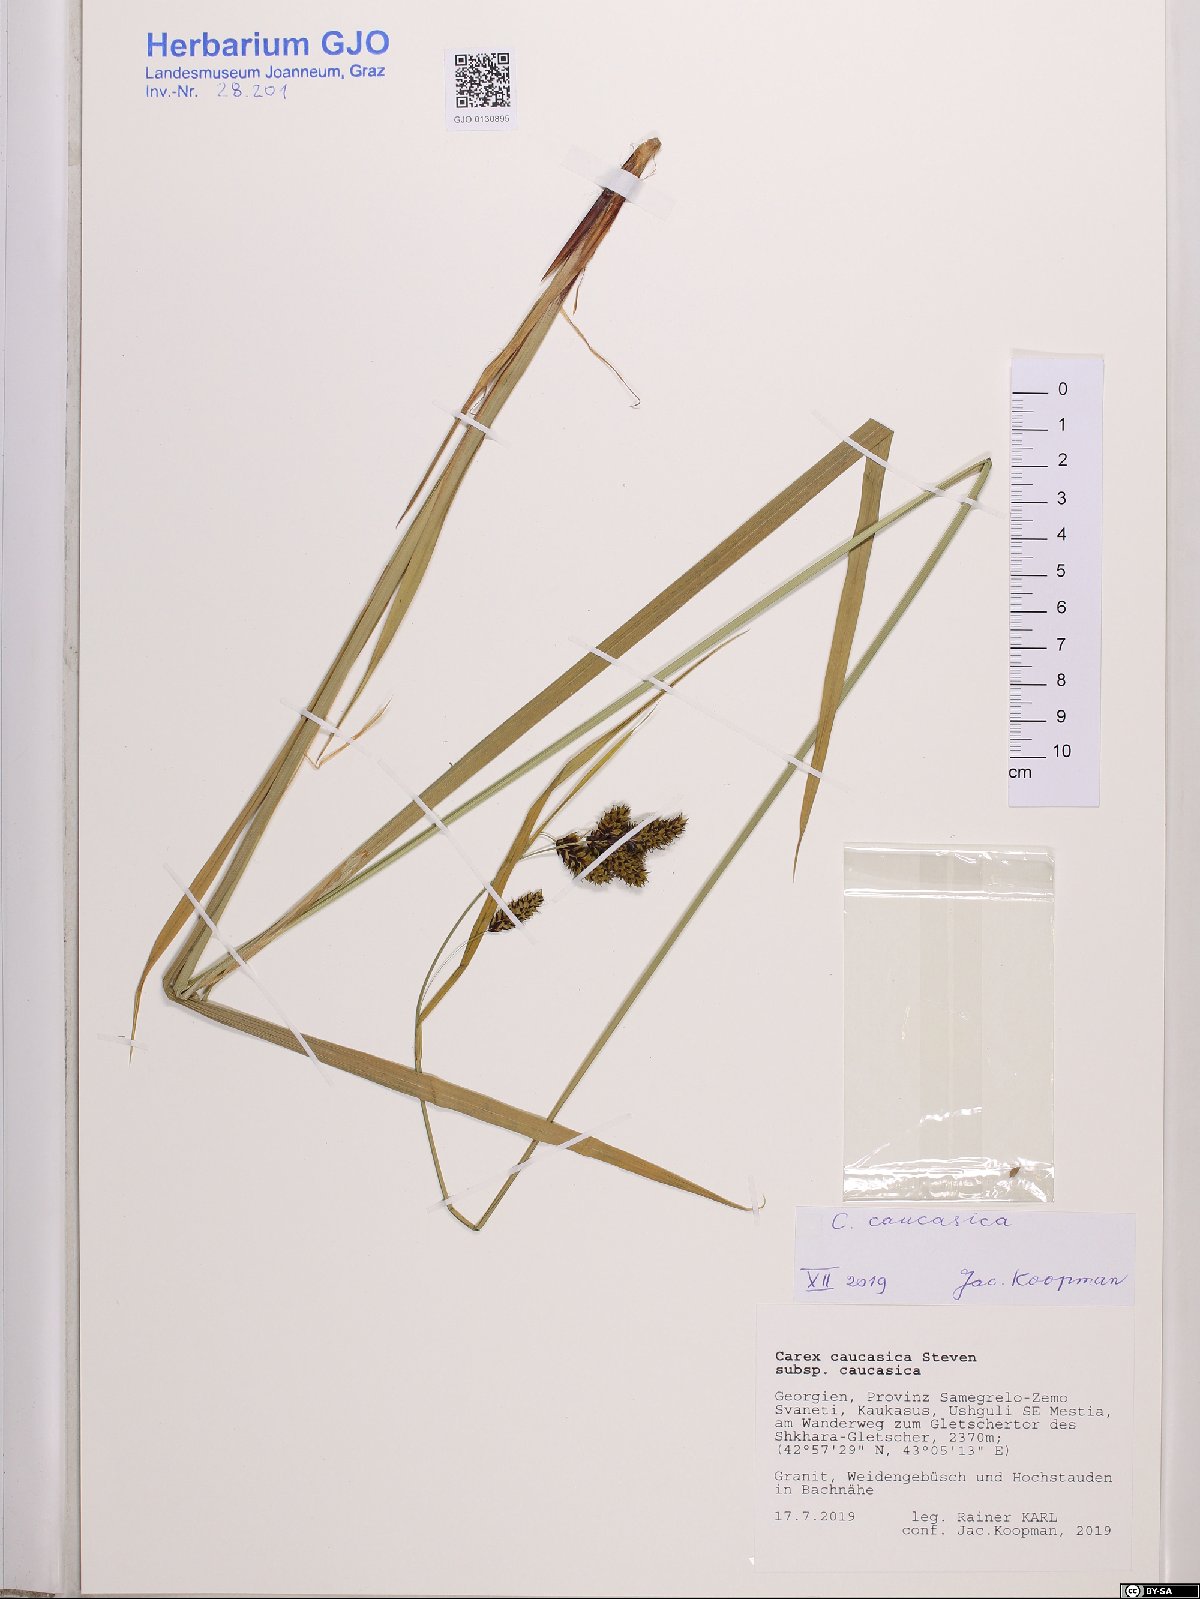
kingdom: Plantae
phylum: Tracheophyta
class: Liliopsida
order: Poales
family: Cyperaceae
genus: Carex
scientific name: Carex caucasica
